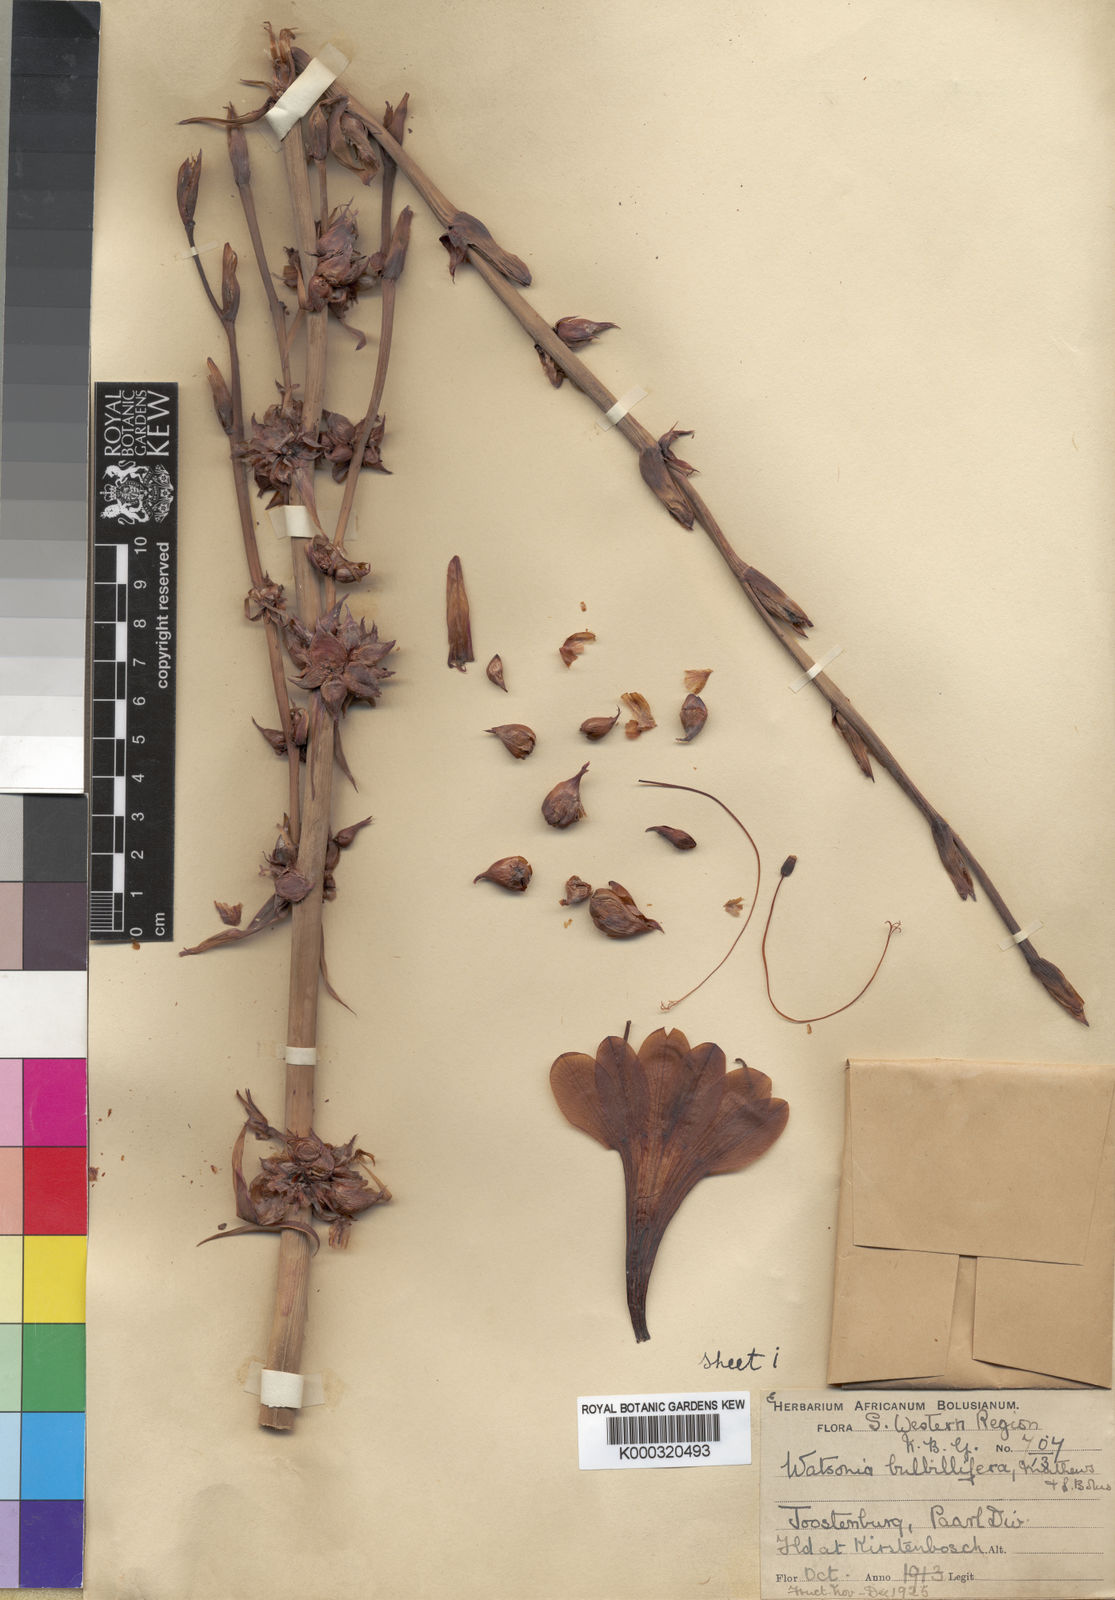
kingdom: Plantae
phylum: Tracheophyta
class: Liliopsida
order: Asparagales
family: Iridaceae
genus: Watsonia
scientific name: Watsonia meriana
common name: Bulbil bugle-lily
